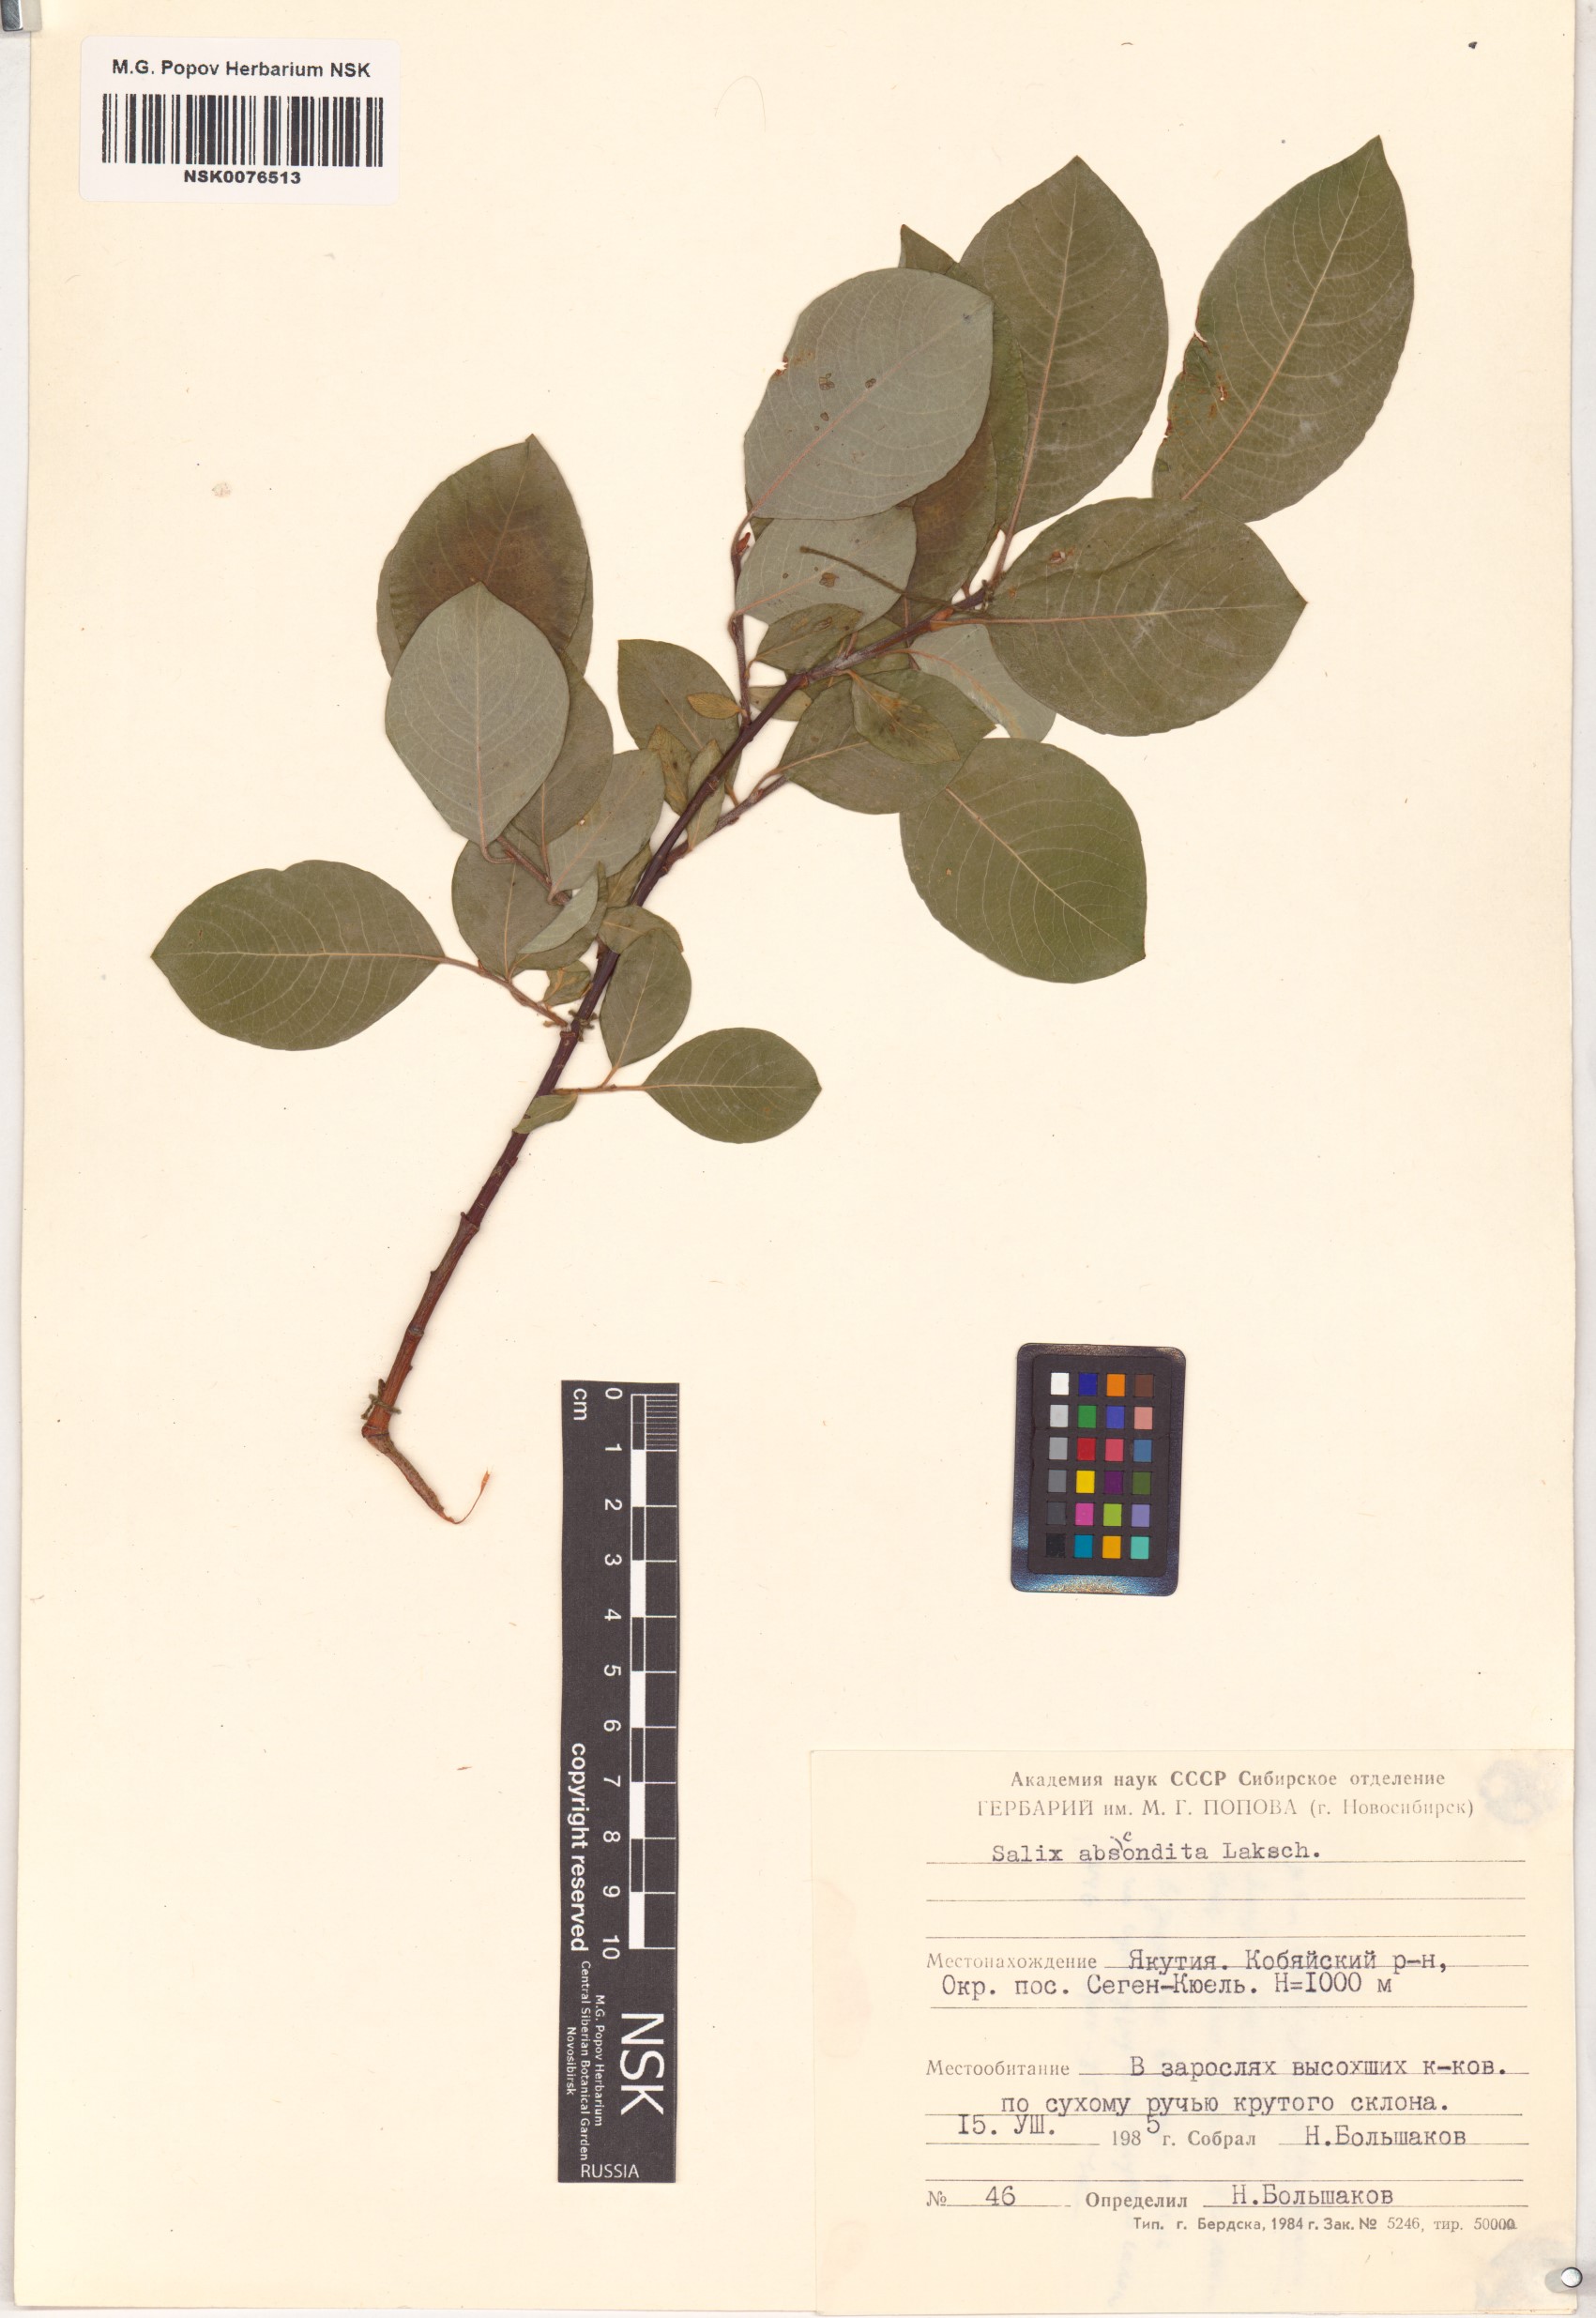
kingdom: Plantae
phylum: Tracheophyta
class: Magnoliopsida
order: Malpighiales
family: Salicaceae
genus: Salix
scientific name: Salix abscondita
